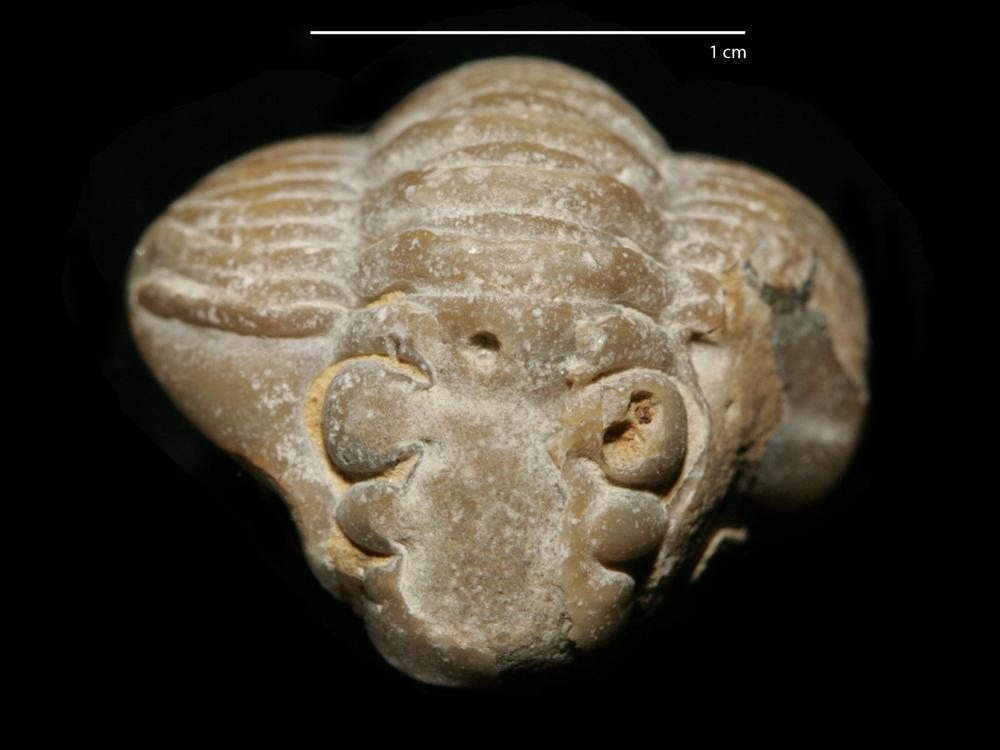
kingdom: Animalia
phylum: Arthropoda
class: Trilobita
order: Phacopida
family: Calymenidae
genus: Calymene
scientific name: Calymene
